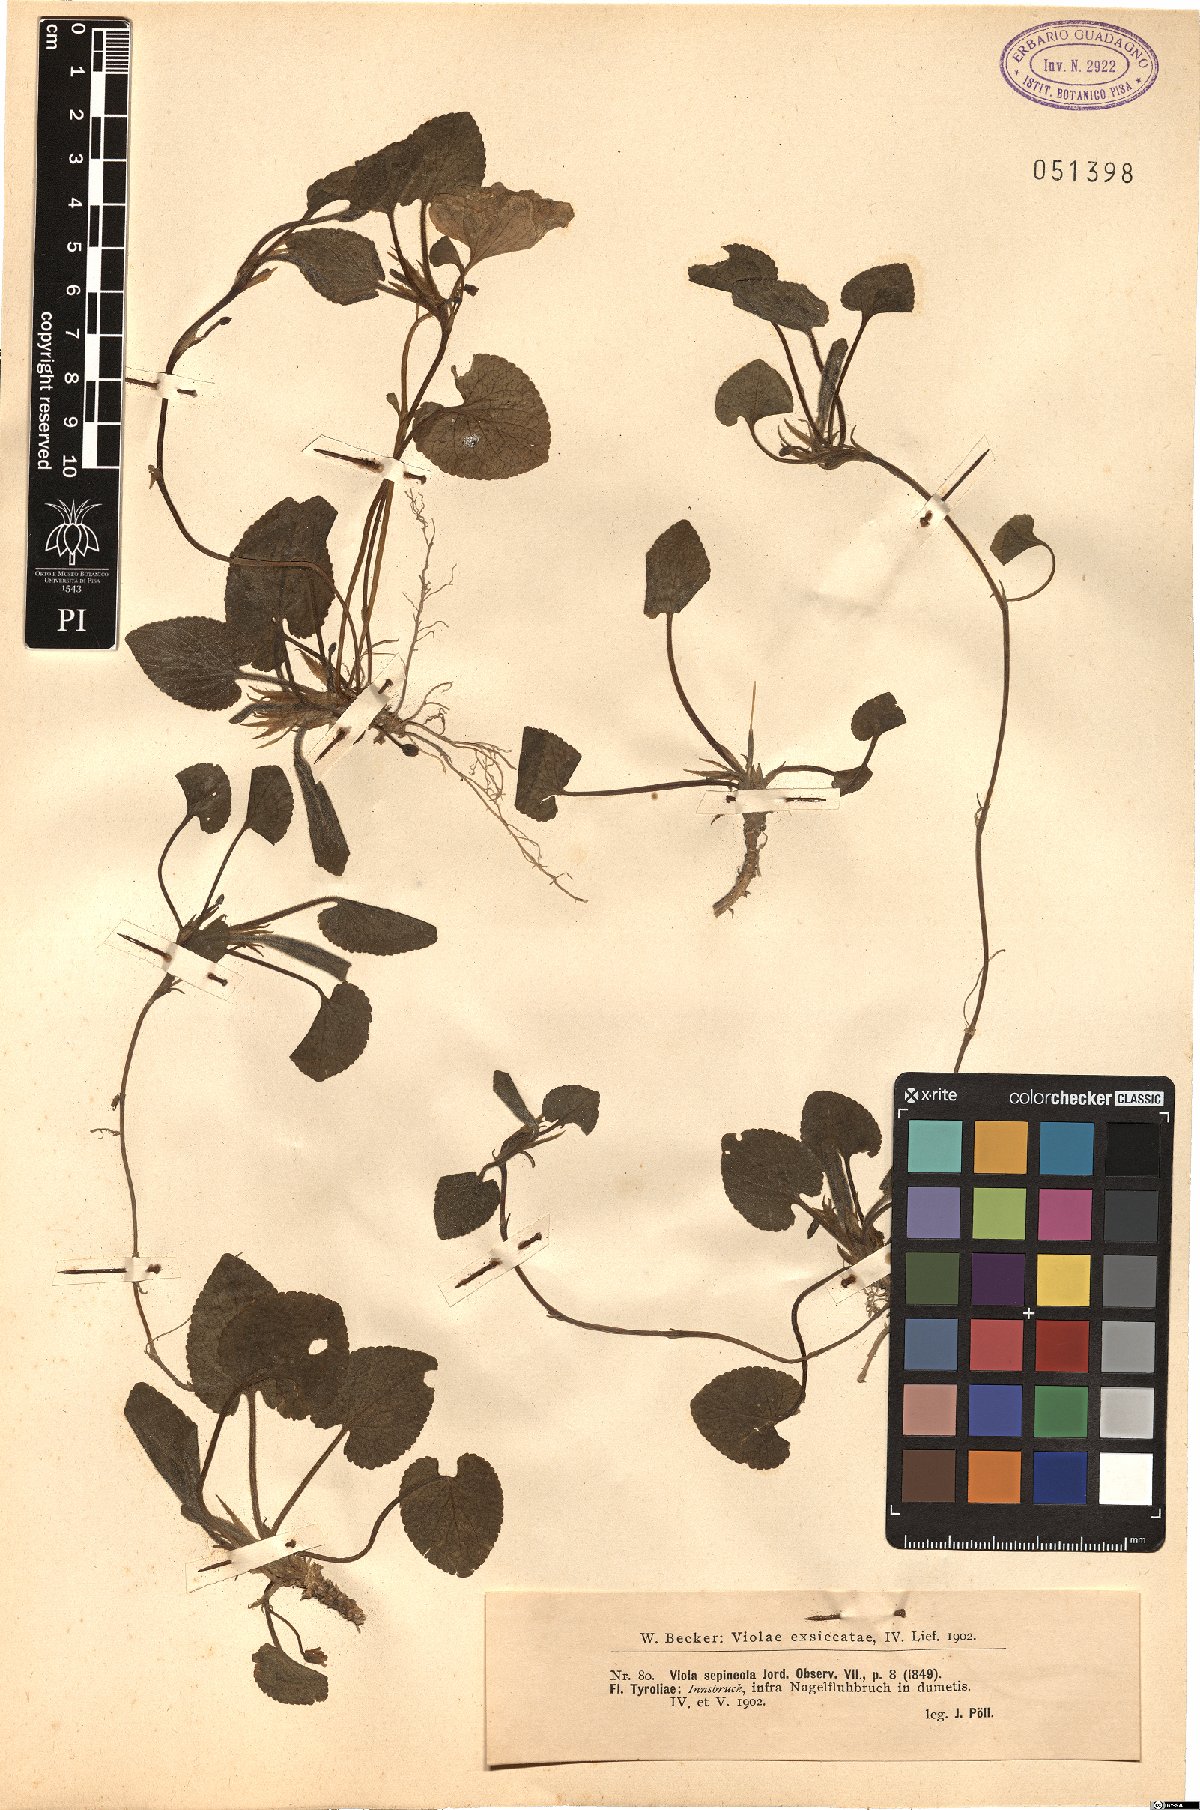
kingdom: Plantae
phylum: Tracheophyta
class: Magnoliopsida
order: Malpighiales
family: Violaceae
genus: Viola
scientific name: Viola suavis
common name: Russian violet
